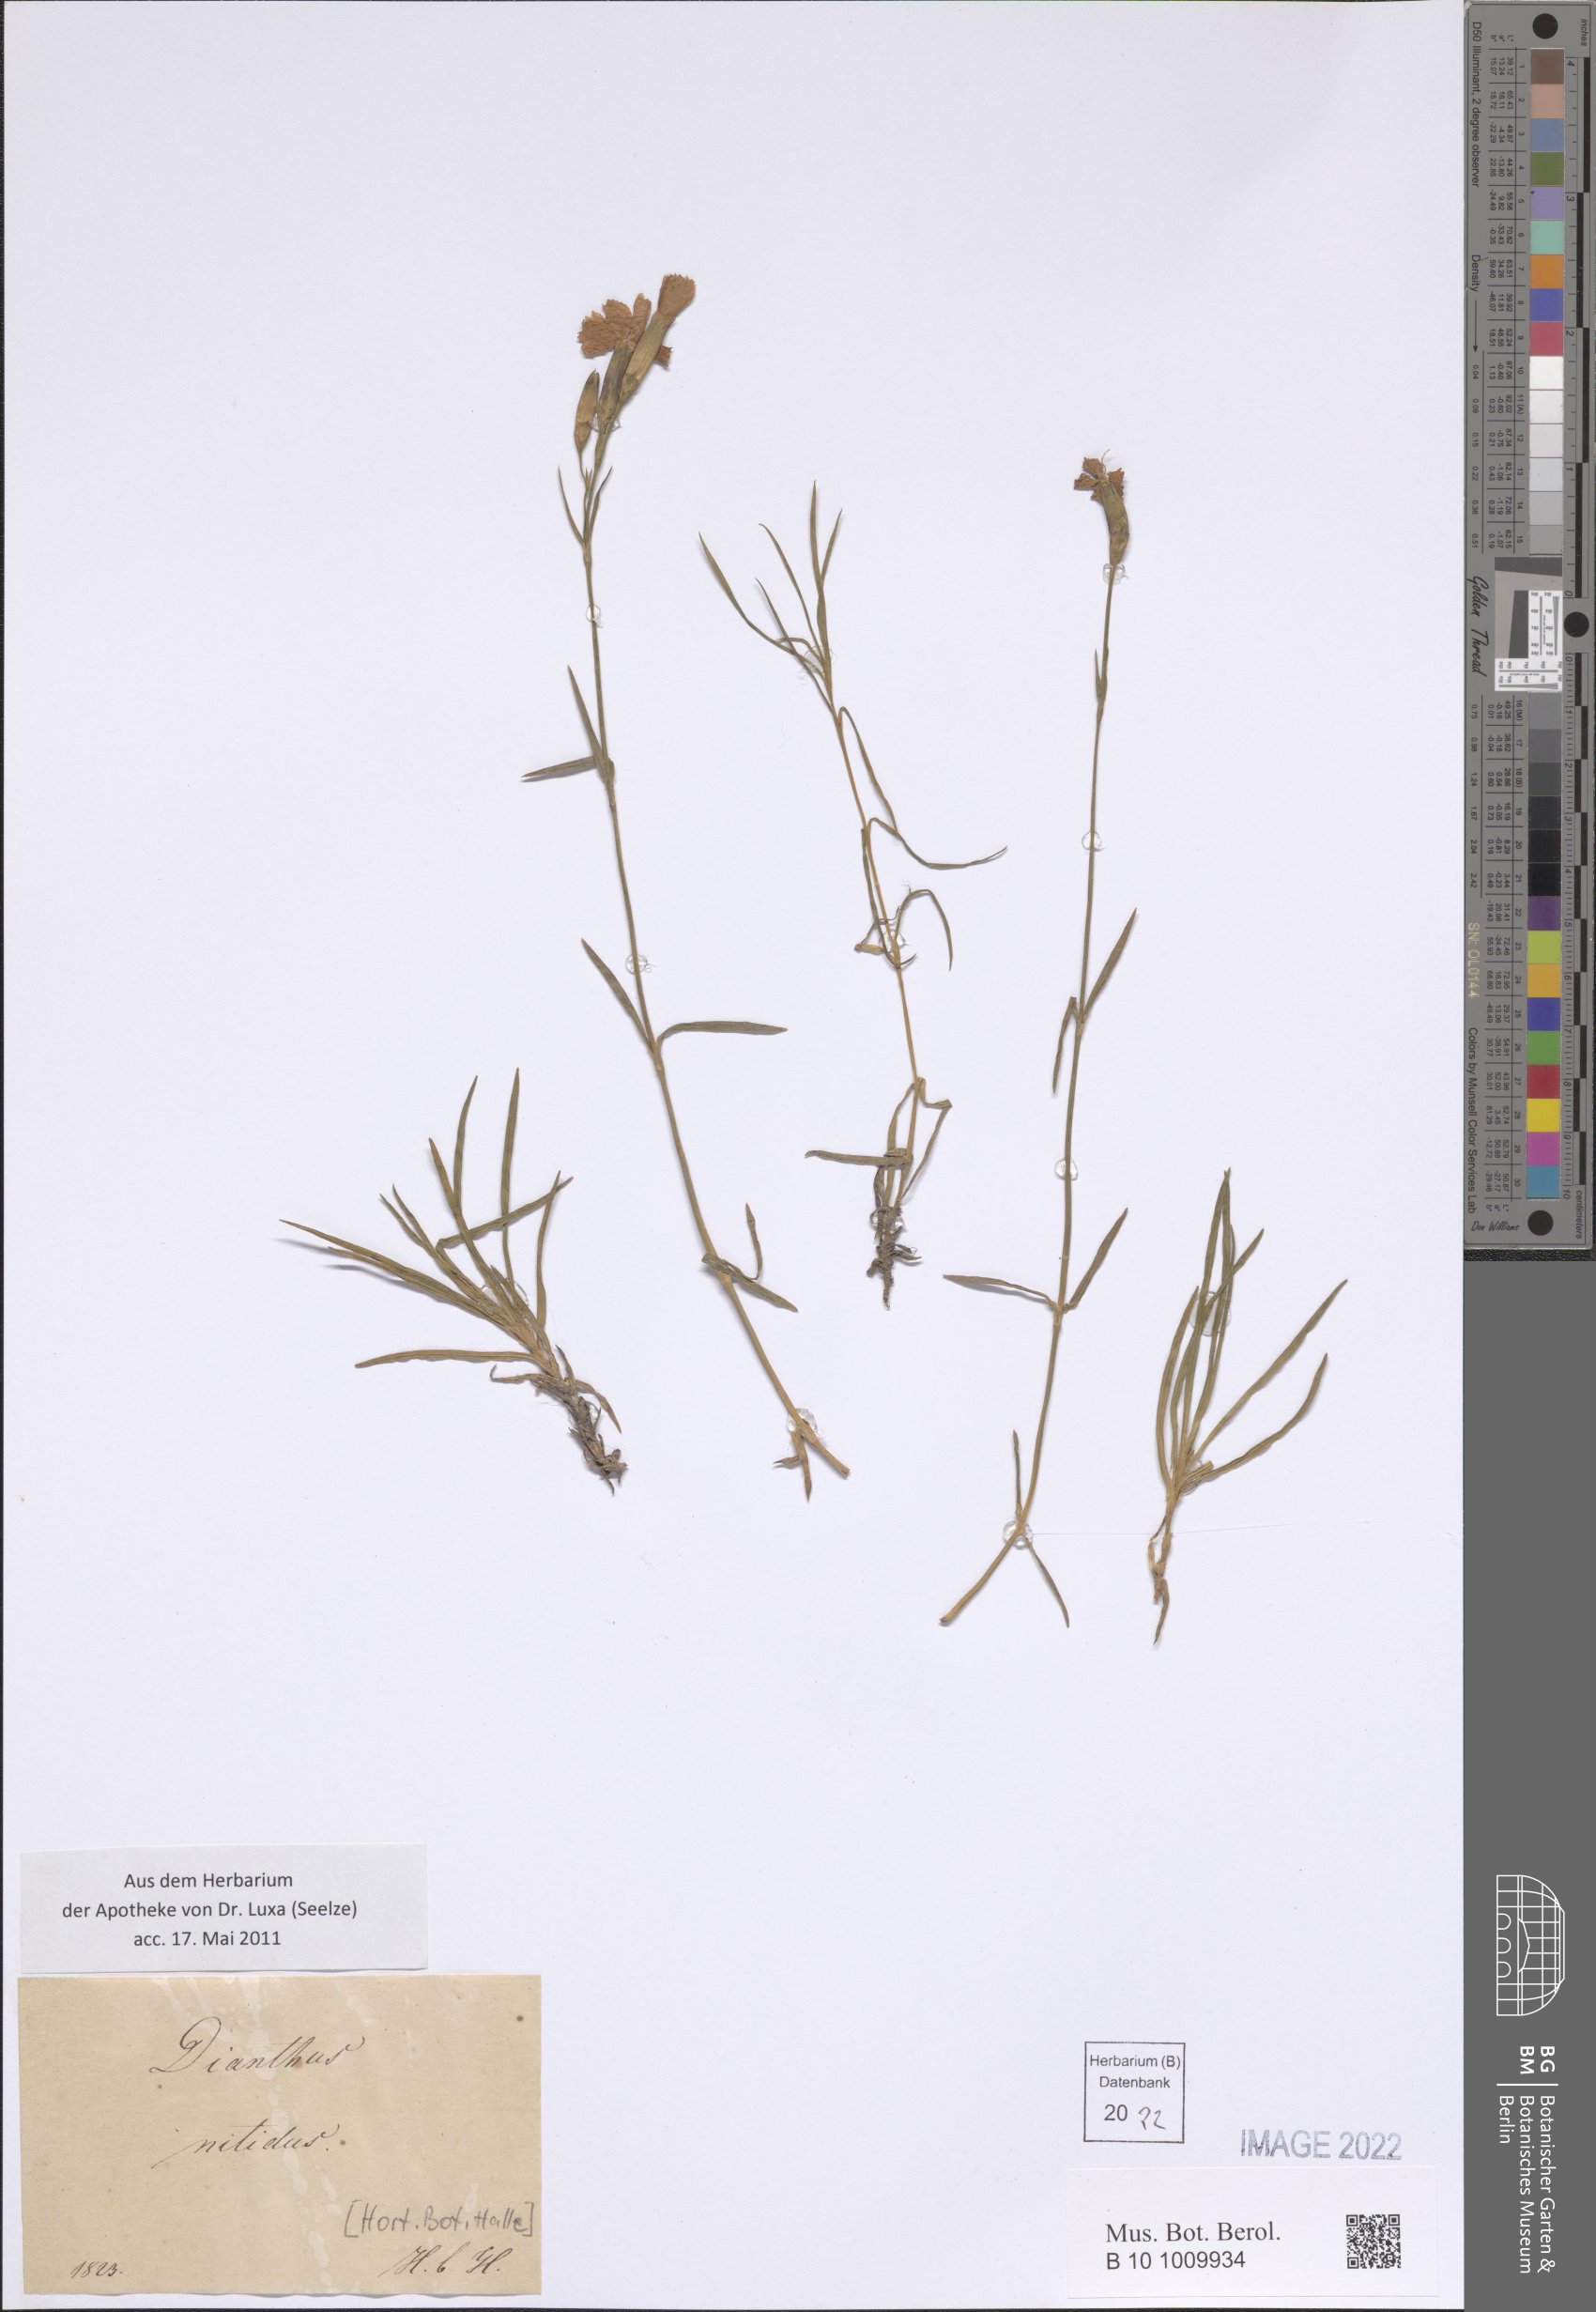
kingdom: Plantae
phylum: Tracheophyta
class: Magnoliopsida
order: Caryophyllales
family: Caryophyllaceae
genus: Dianthus
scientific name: Dianthus nitidus
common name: Carpathian glossy pink
